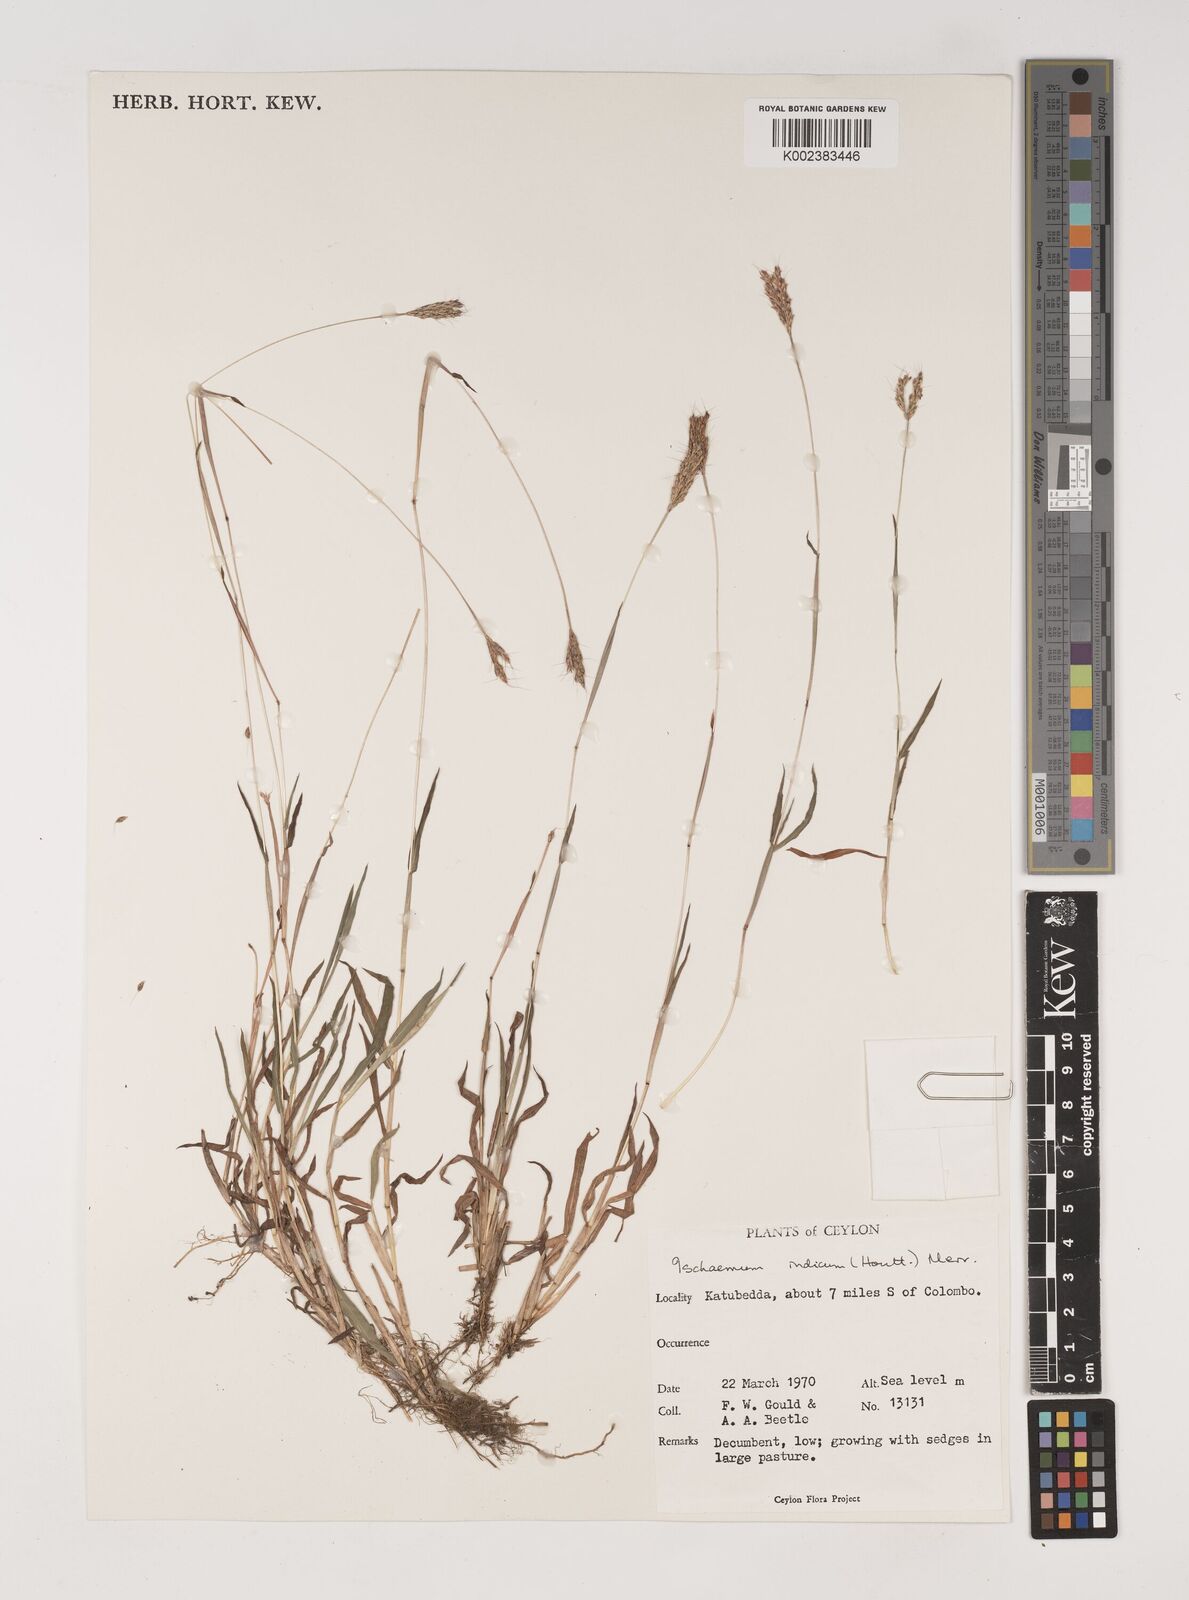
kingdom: Plantae
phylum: Tracheophyta
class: Liliopsida
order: Poales
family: Poaceae
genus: Polytrias
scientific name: Polytrias indica
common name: Indian murainagrass
